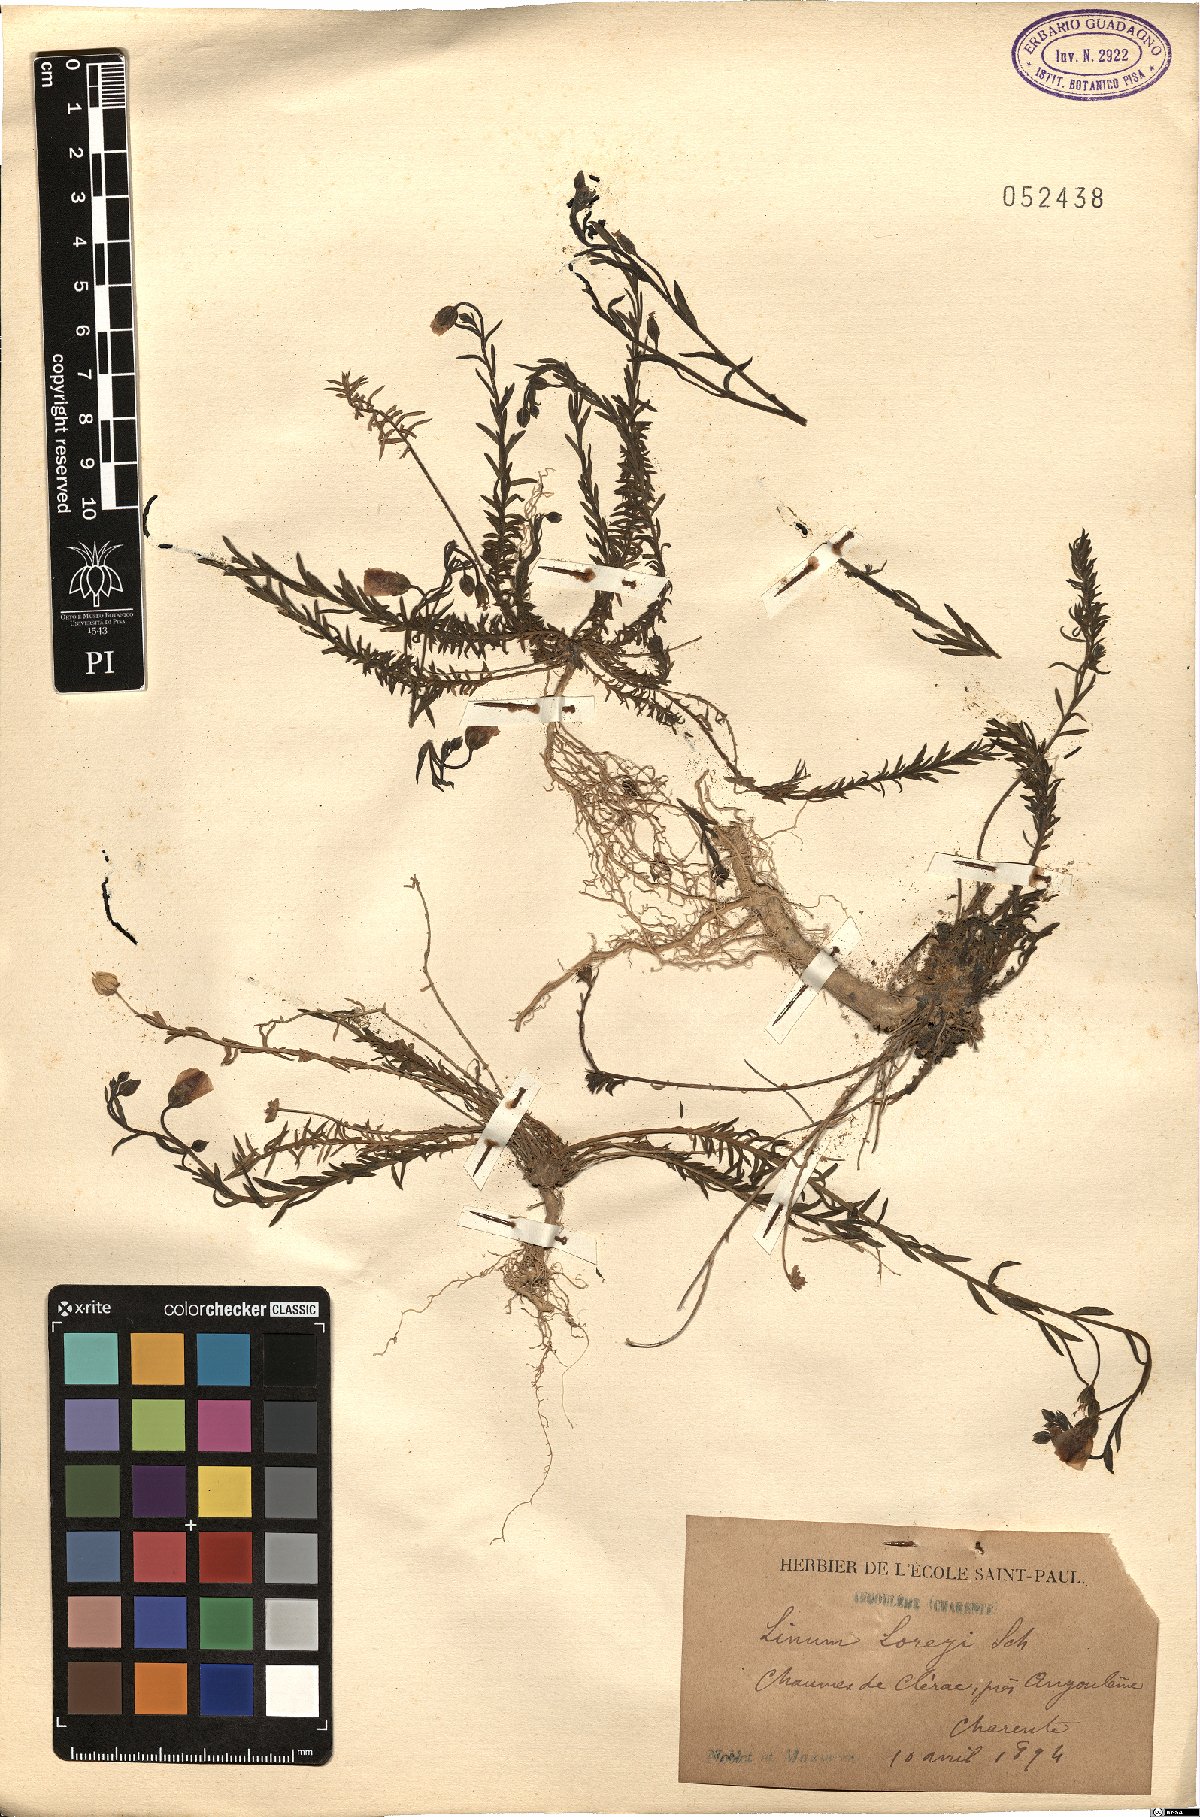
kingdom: Plantae
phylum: Tracheophyta
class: Magnoliopsida
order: Malpighiales
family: Linaceae
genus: Linum
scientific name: Linum
